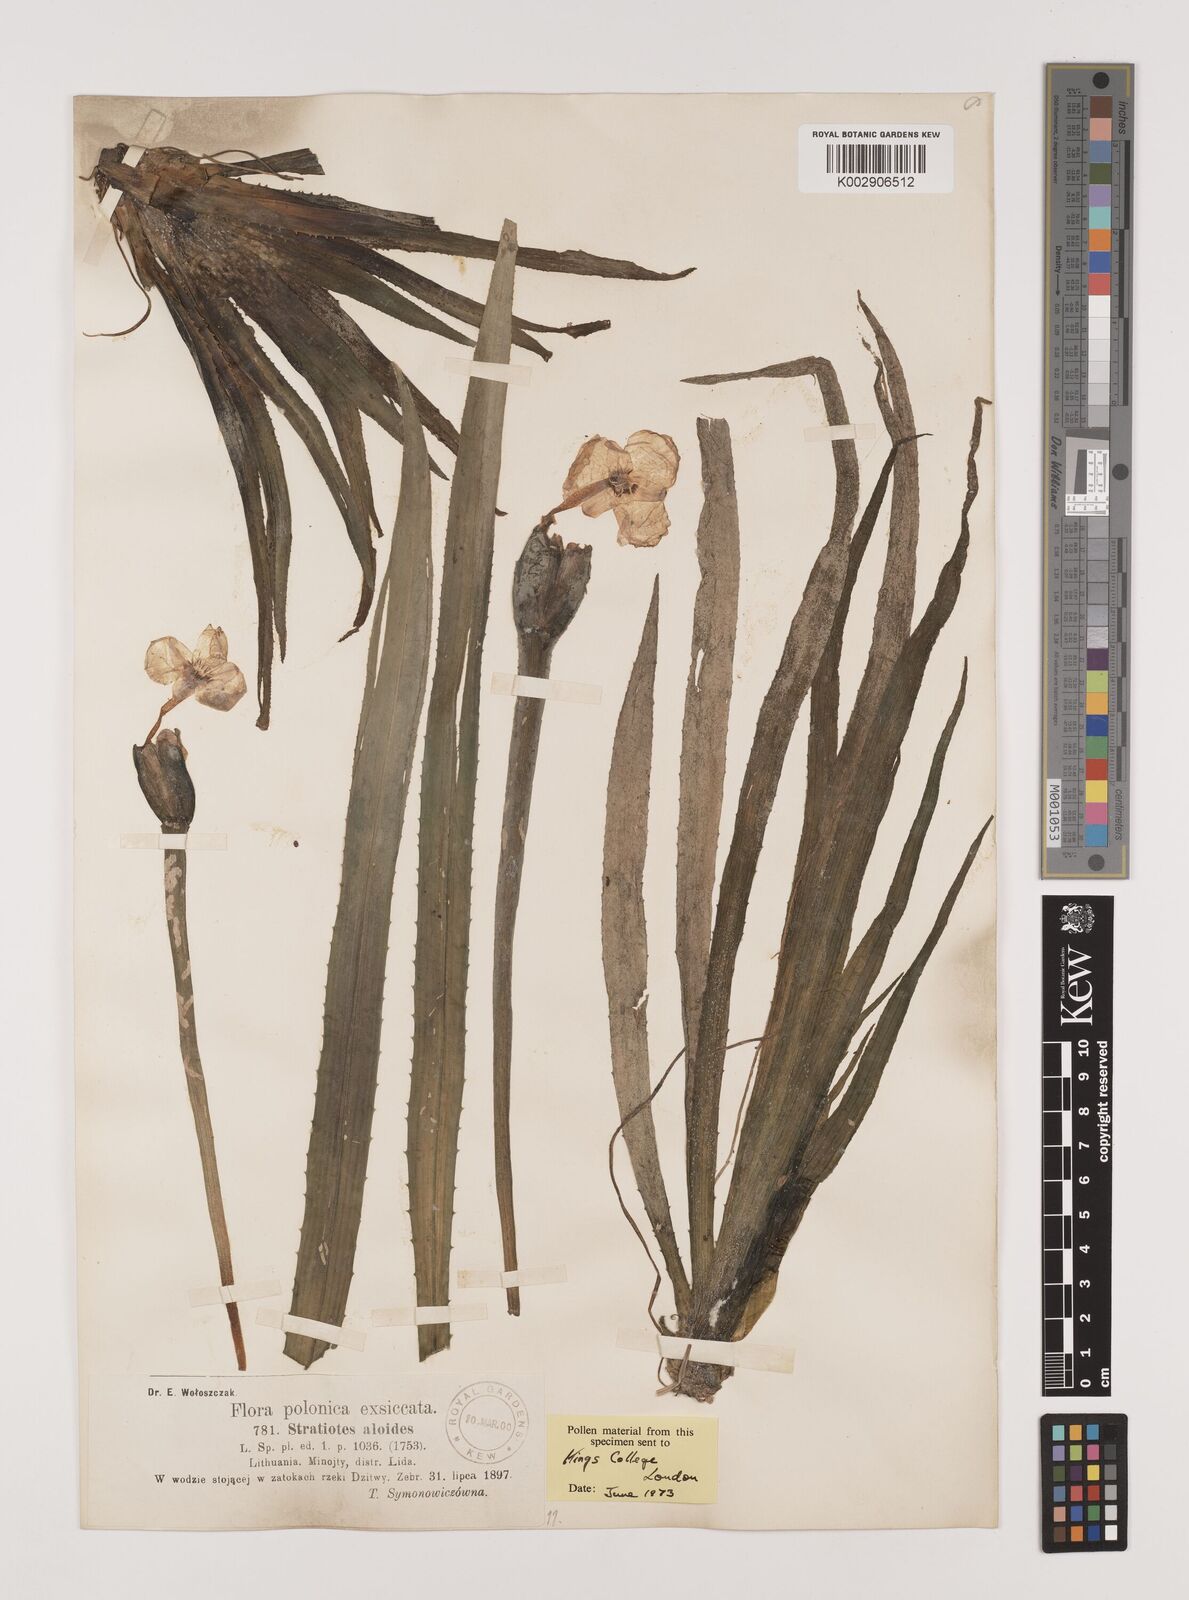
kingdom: Plantae
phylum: Tracheophyta
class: Liliopsida
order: Alismatales
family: Hydrocharitaceae
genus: Stratiotes
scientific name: Stratiotes aloides
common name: Water-soldier
